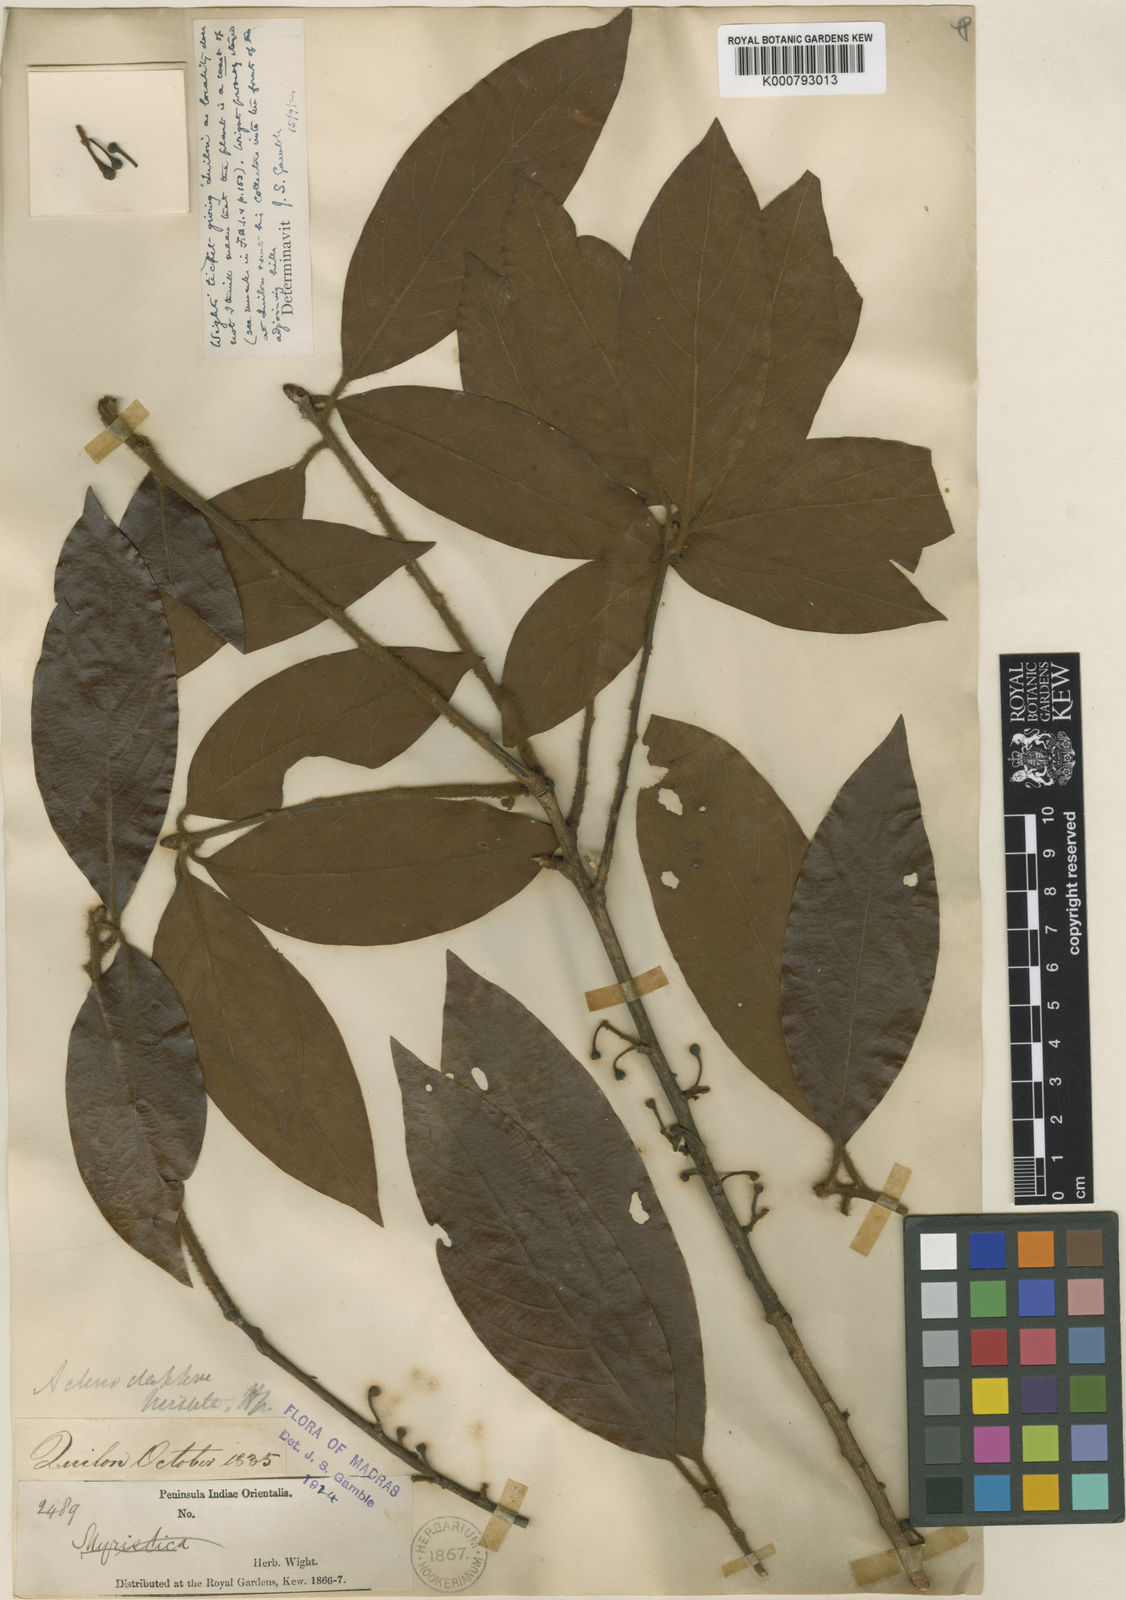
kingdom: Plantae
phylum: Tracheophyta
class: Magnoliopsida
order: Laurales
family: Lauraceae
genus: Actinodaphne
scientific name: Actinodaphne wightiana
